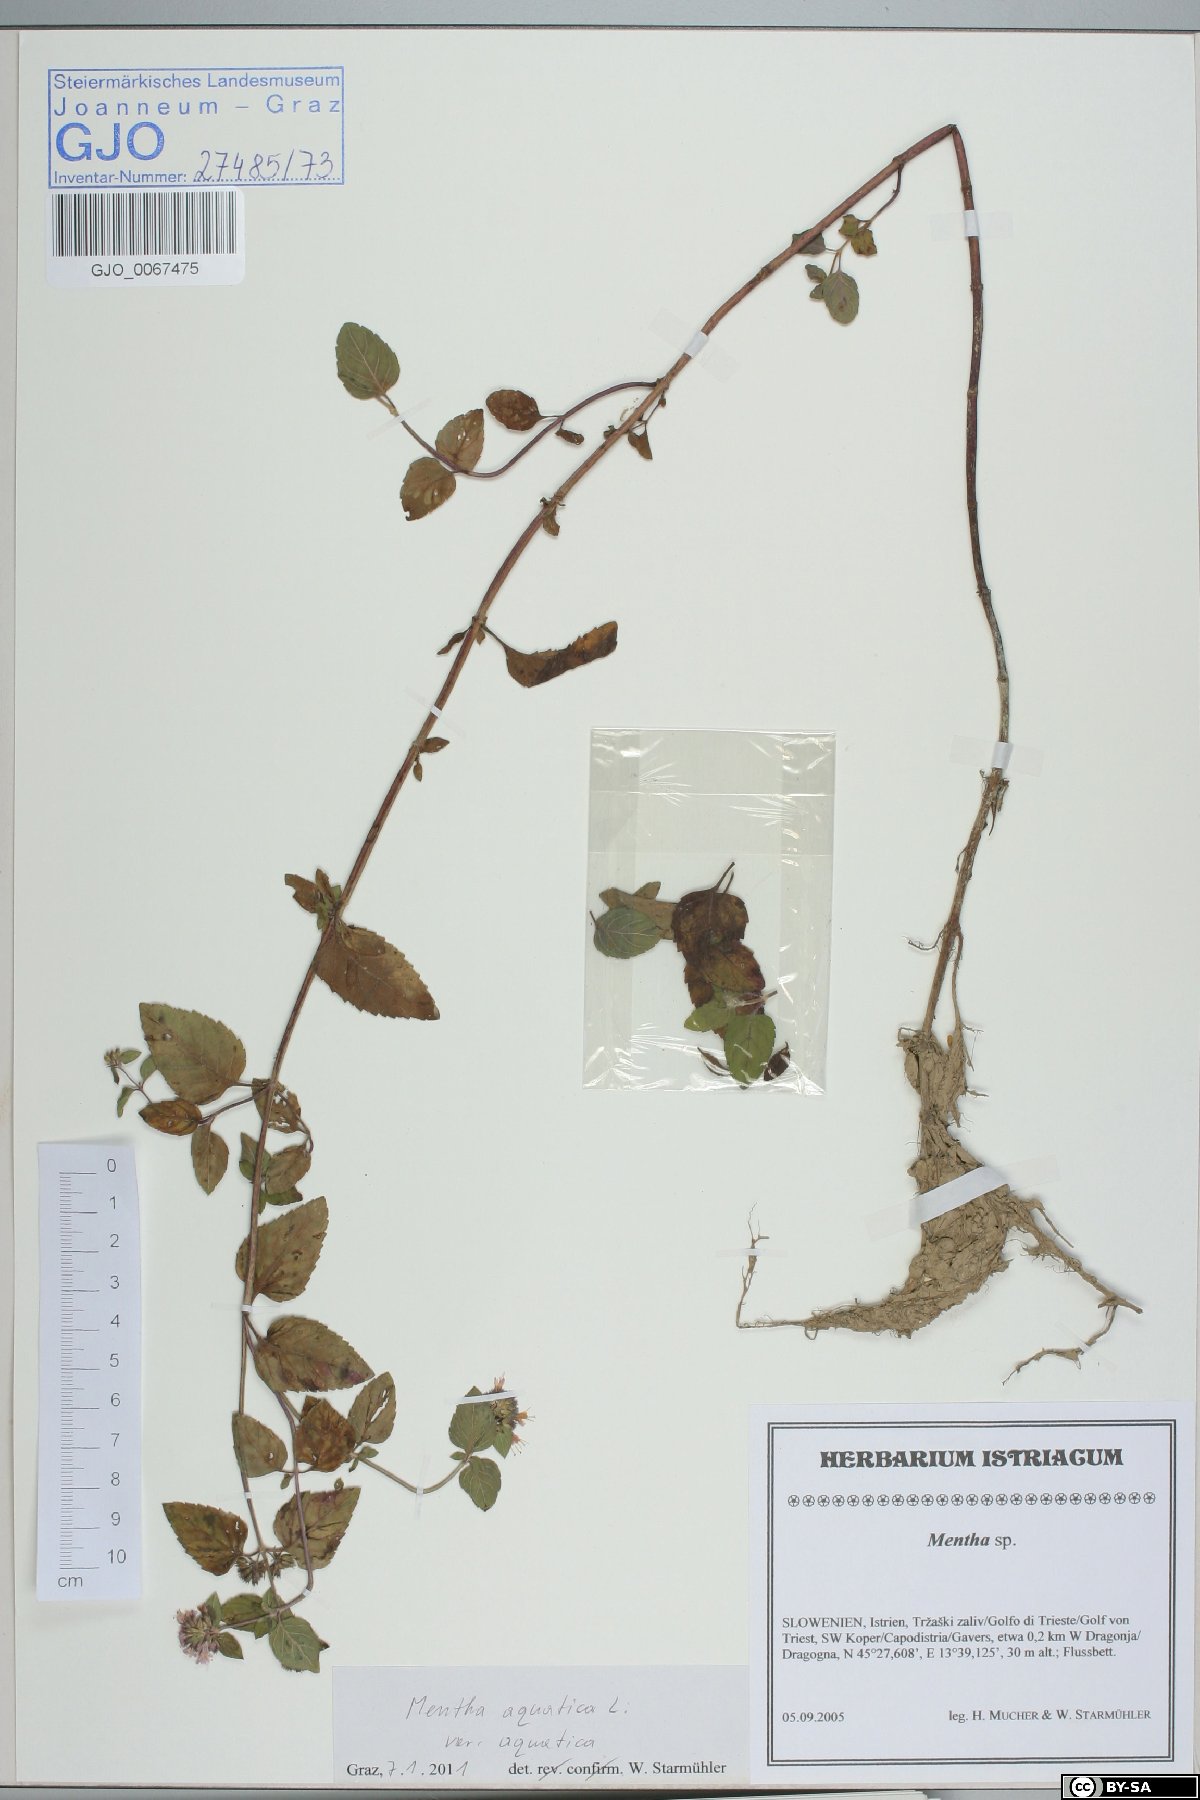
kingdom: Plantae
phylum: Tracheophyta
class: Magnoliopsida
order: Lamiales
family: Lamiaceae
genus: Mentha
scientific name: Mentha aquatica
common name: Water mint
